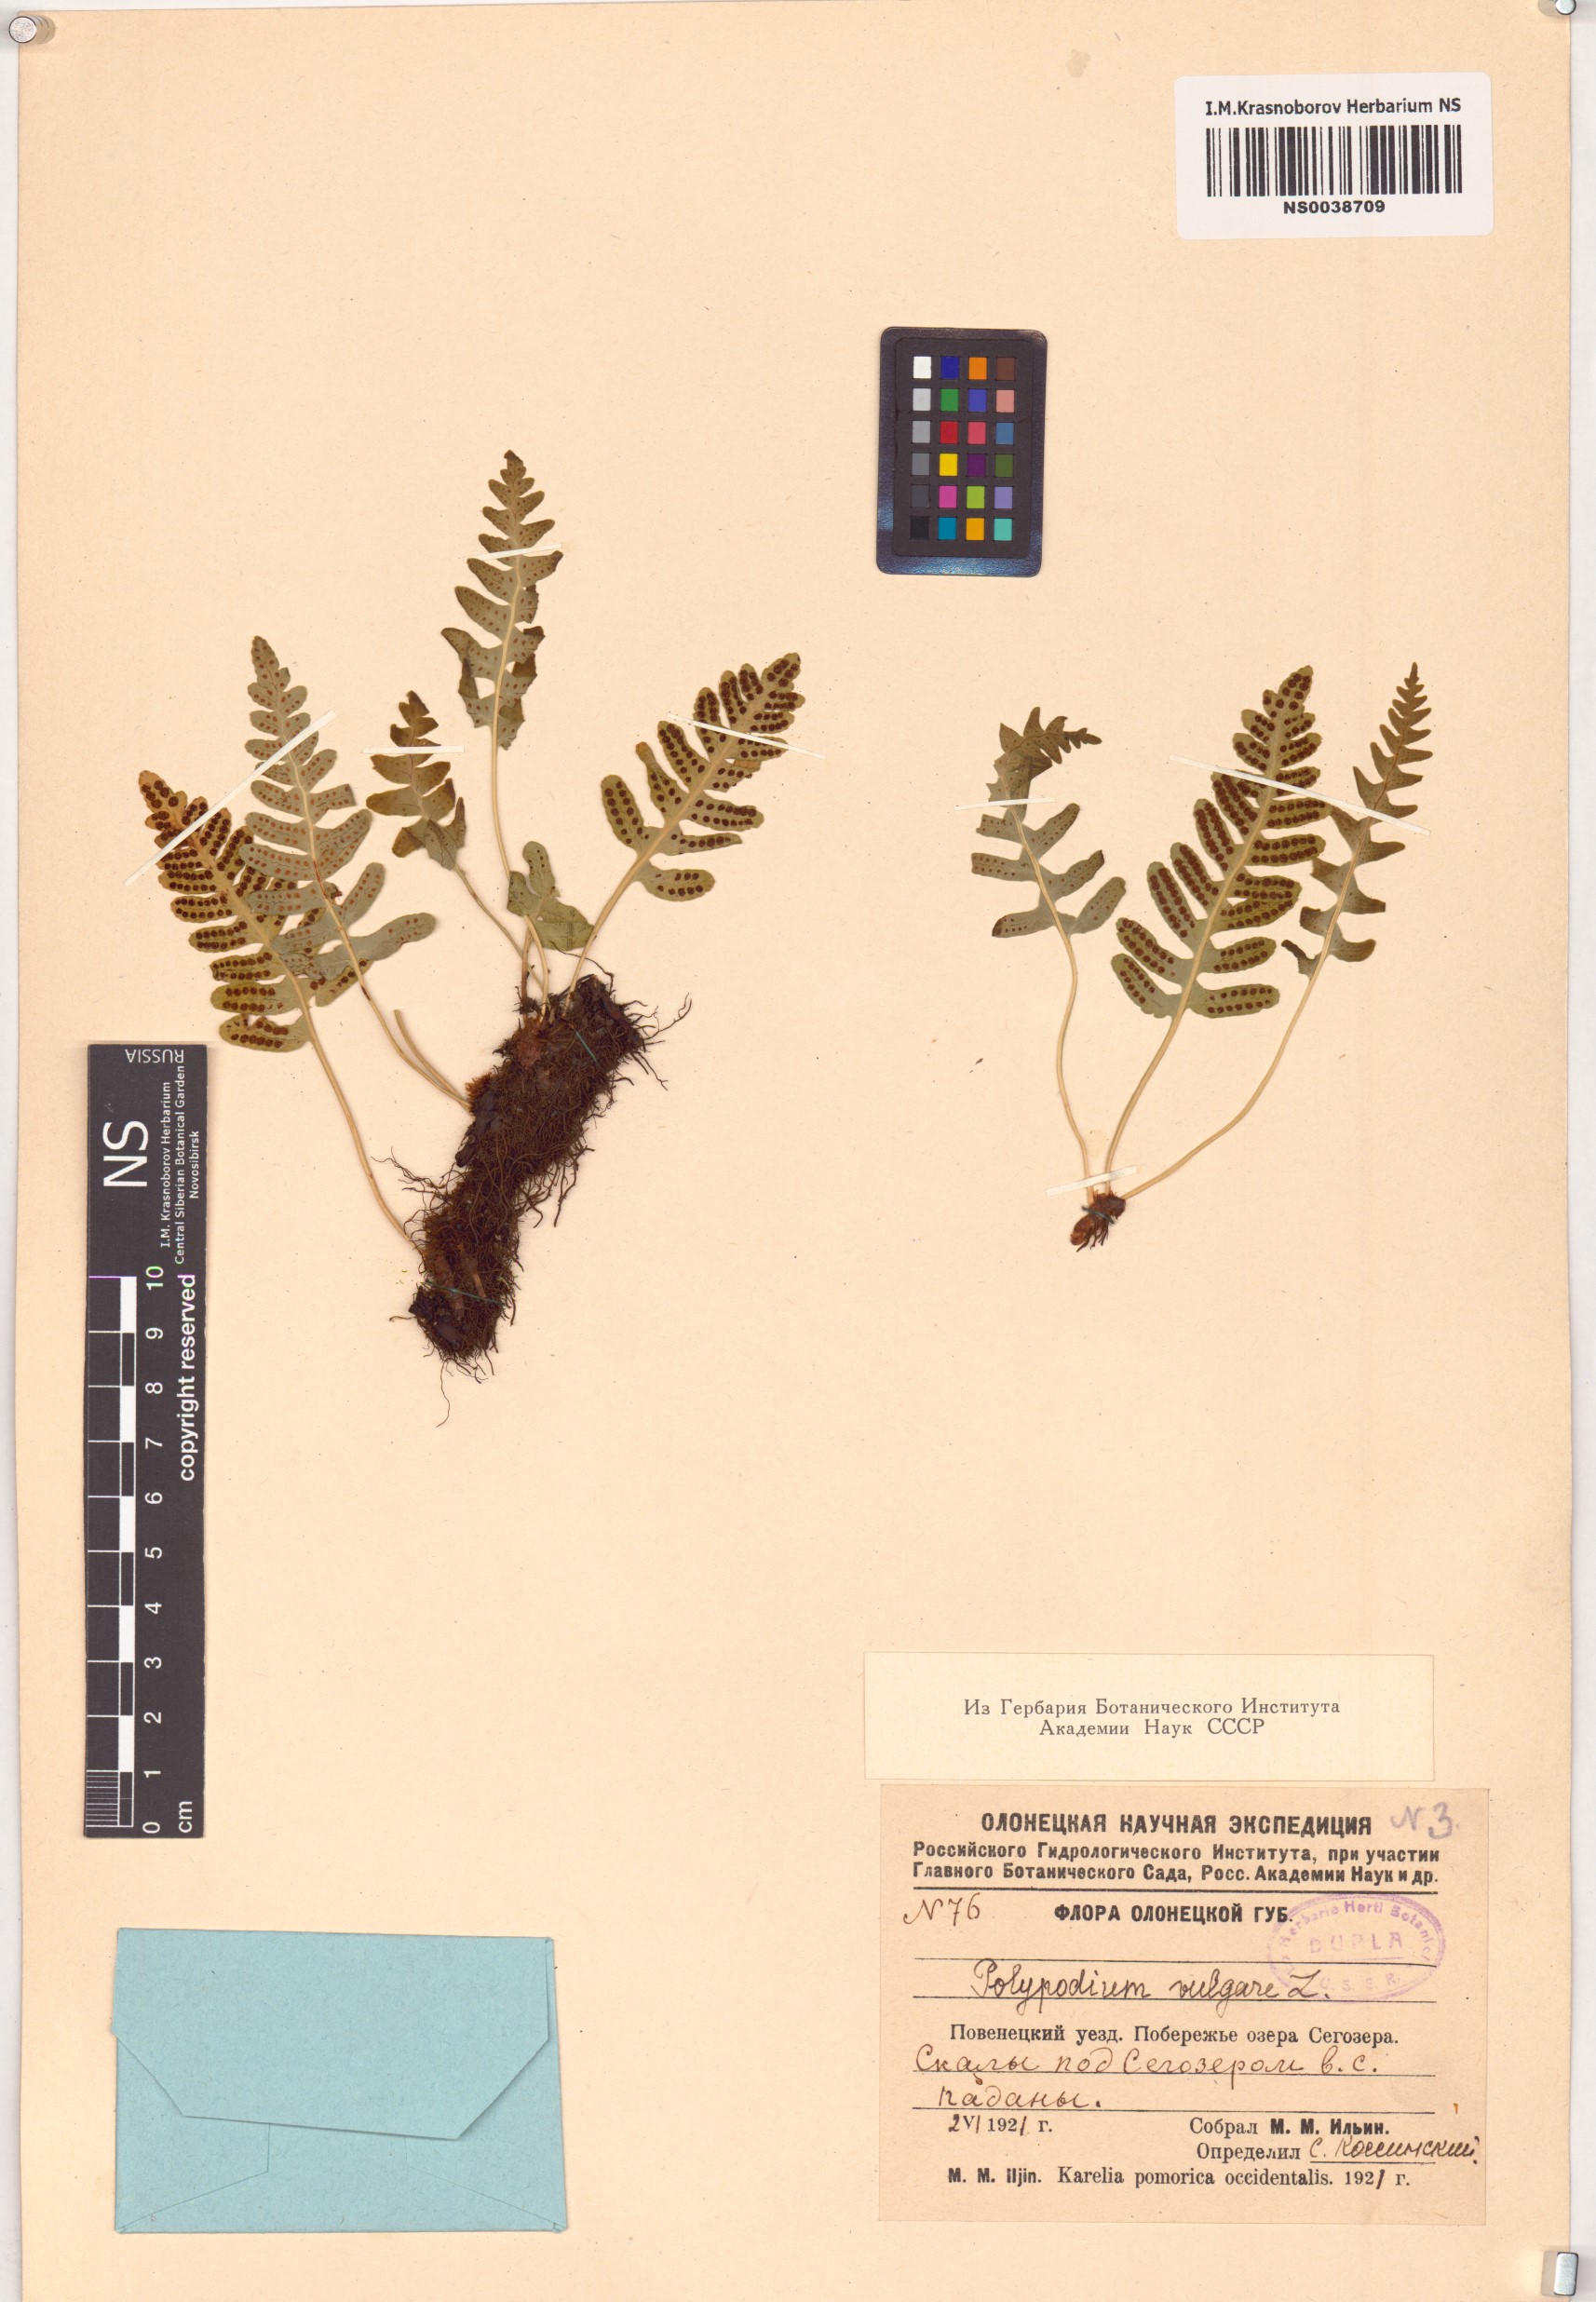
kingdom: Plantae
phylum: Tracheophyta
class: Polypodiopsida
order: Polypodiales
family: Polypodiaceae
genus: Polypodium
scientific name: Polypodium vulgare
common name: Common polypody
